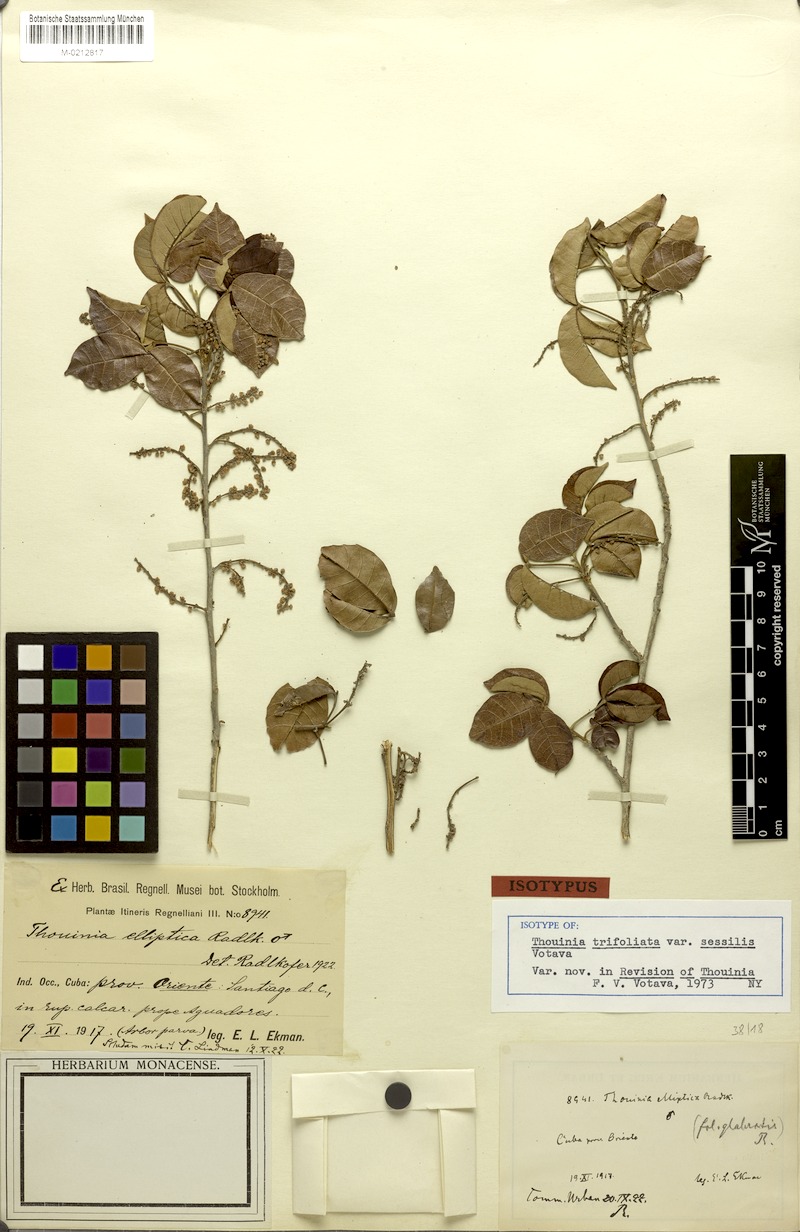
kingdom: Plantae
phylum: Tracheophyta
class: Magnoliopsida
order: Sapindales
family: Sapindaceae
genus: Thouinia
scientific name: Thouinia trifoliata
